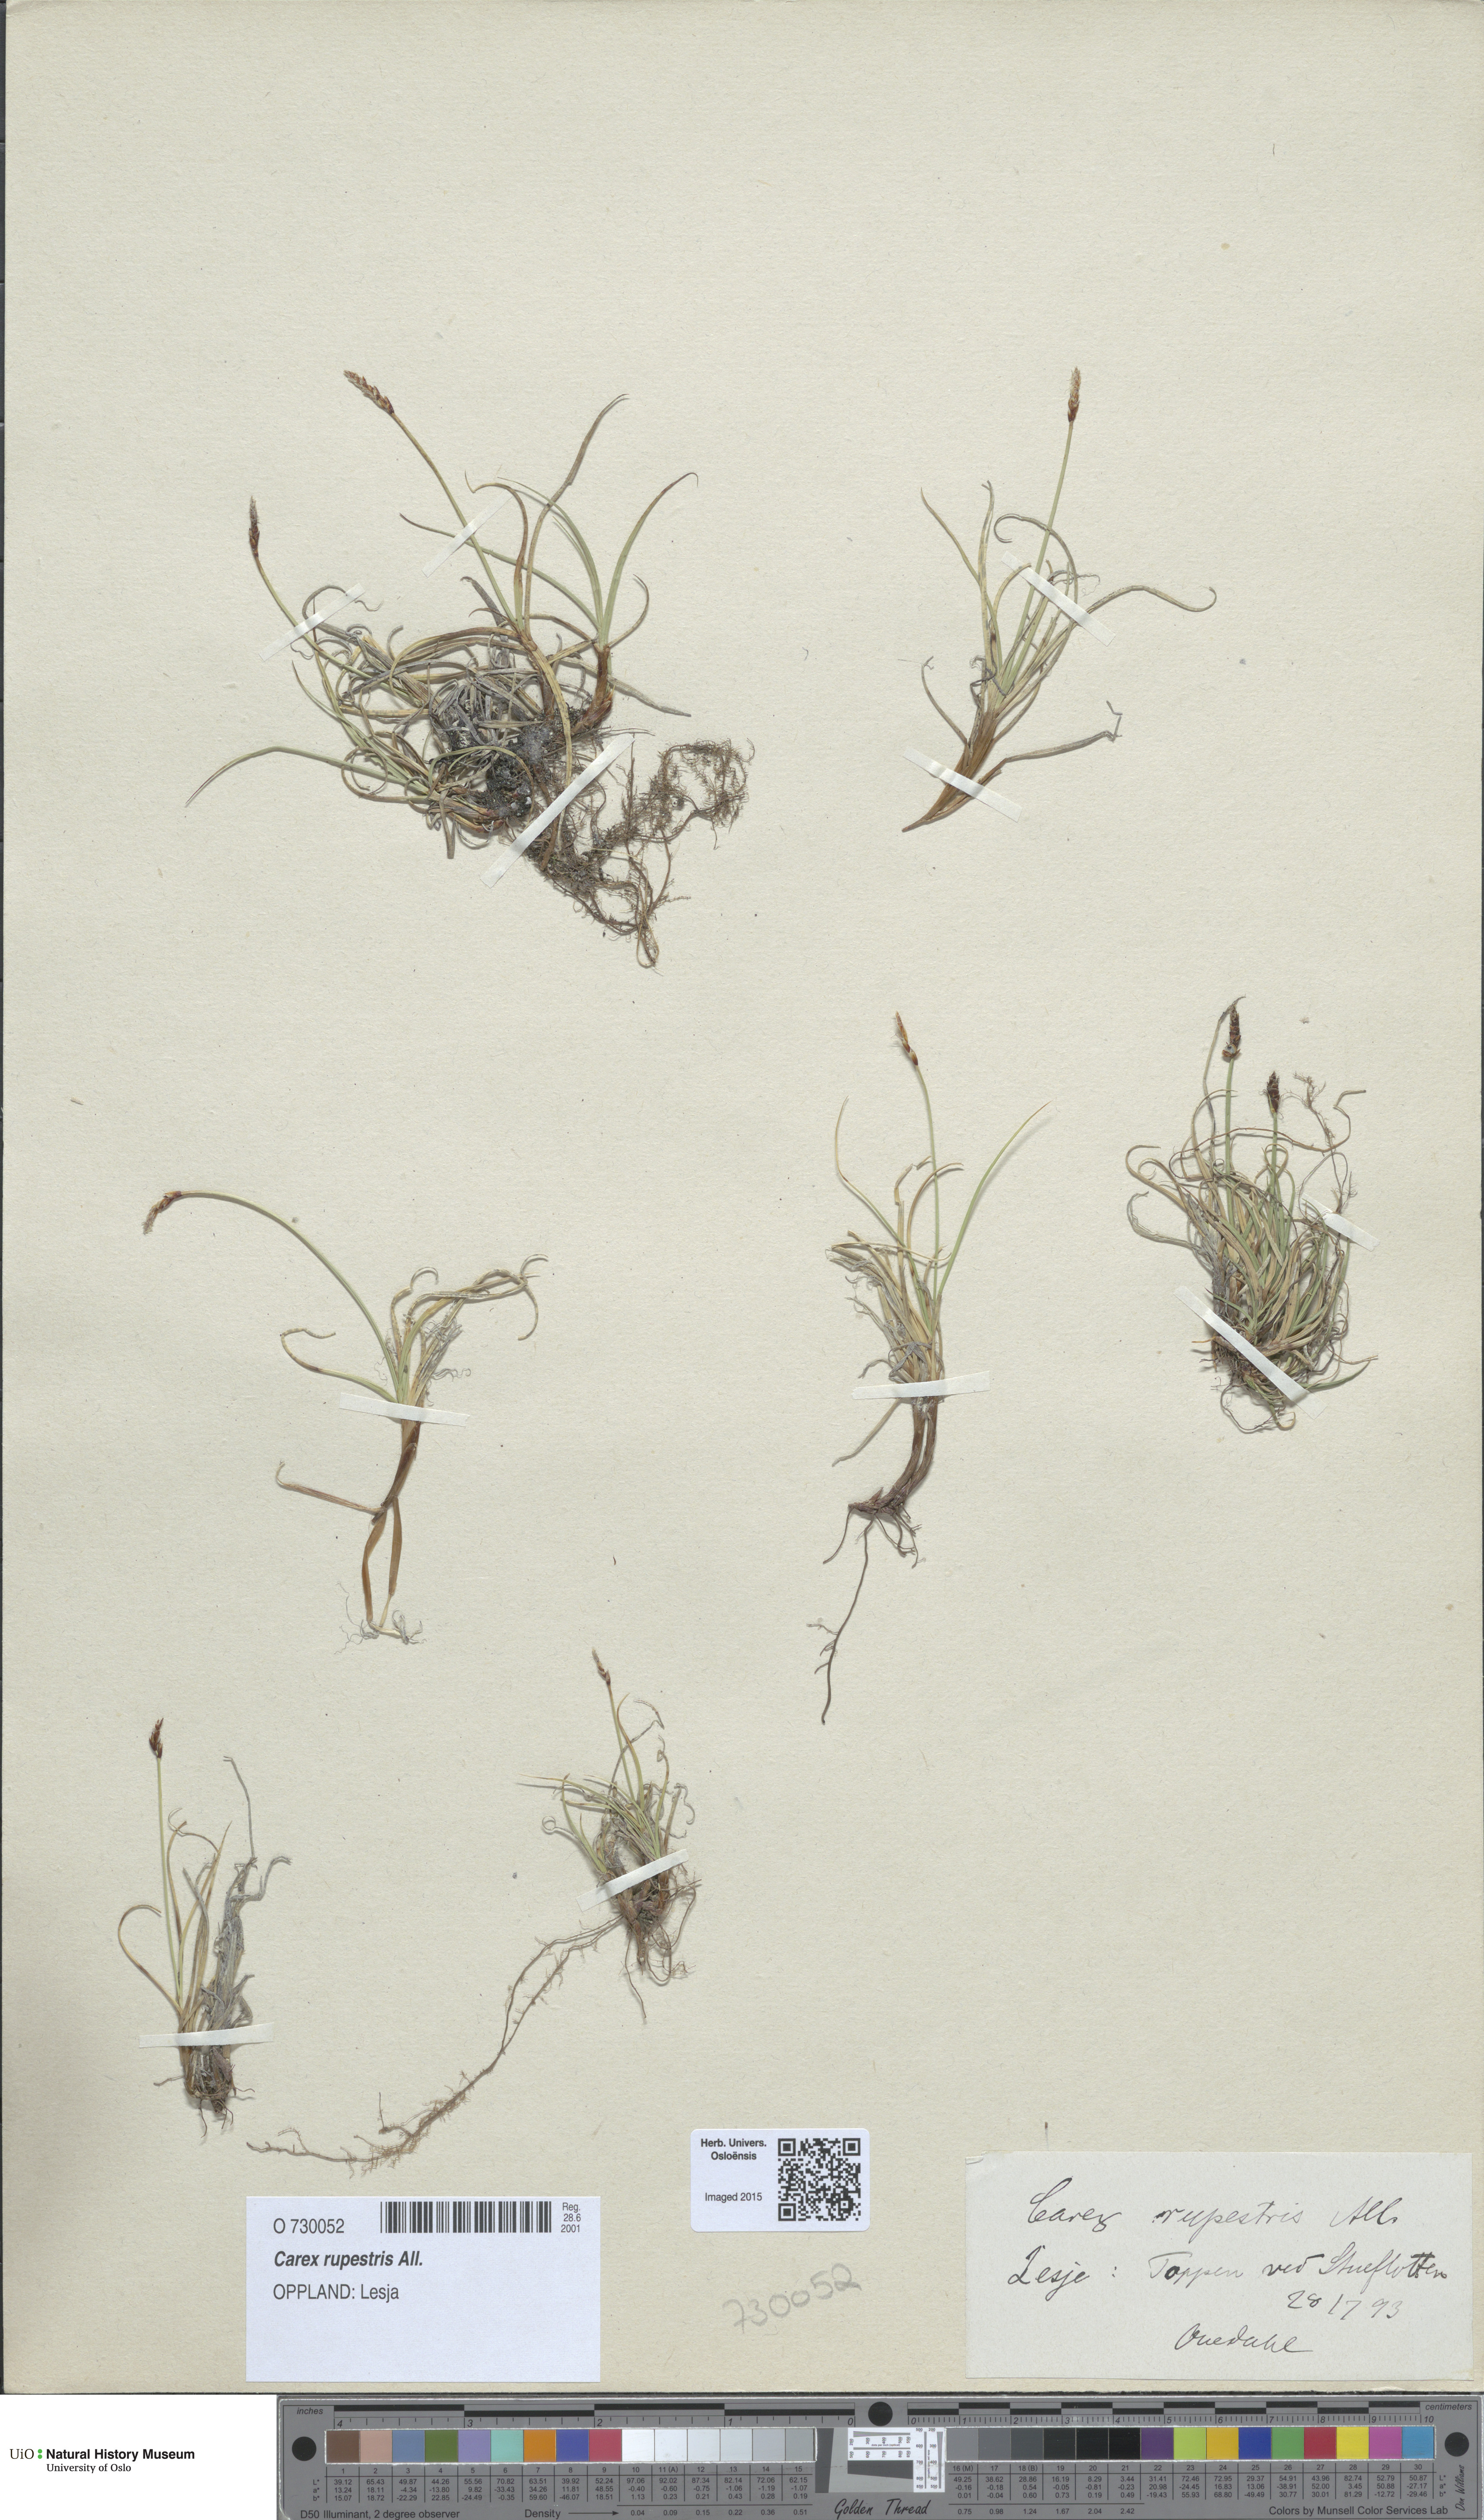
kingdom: Plantae
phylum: Tracheophyta
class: Liliopsida
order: Poales
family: Cyperaceae
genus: Carex
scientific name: Carex rupestris
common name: Rock sedge
